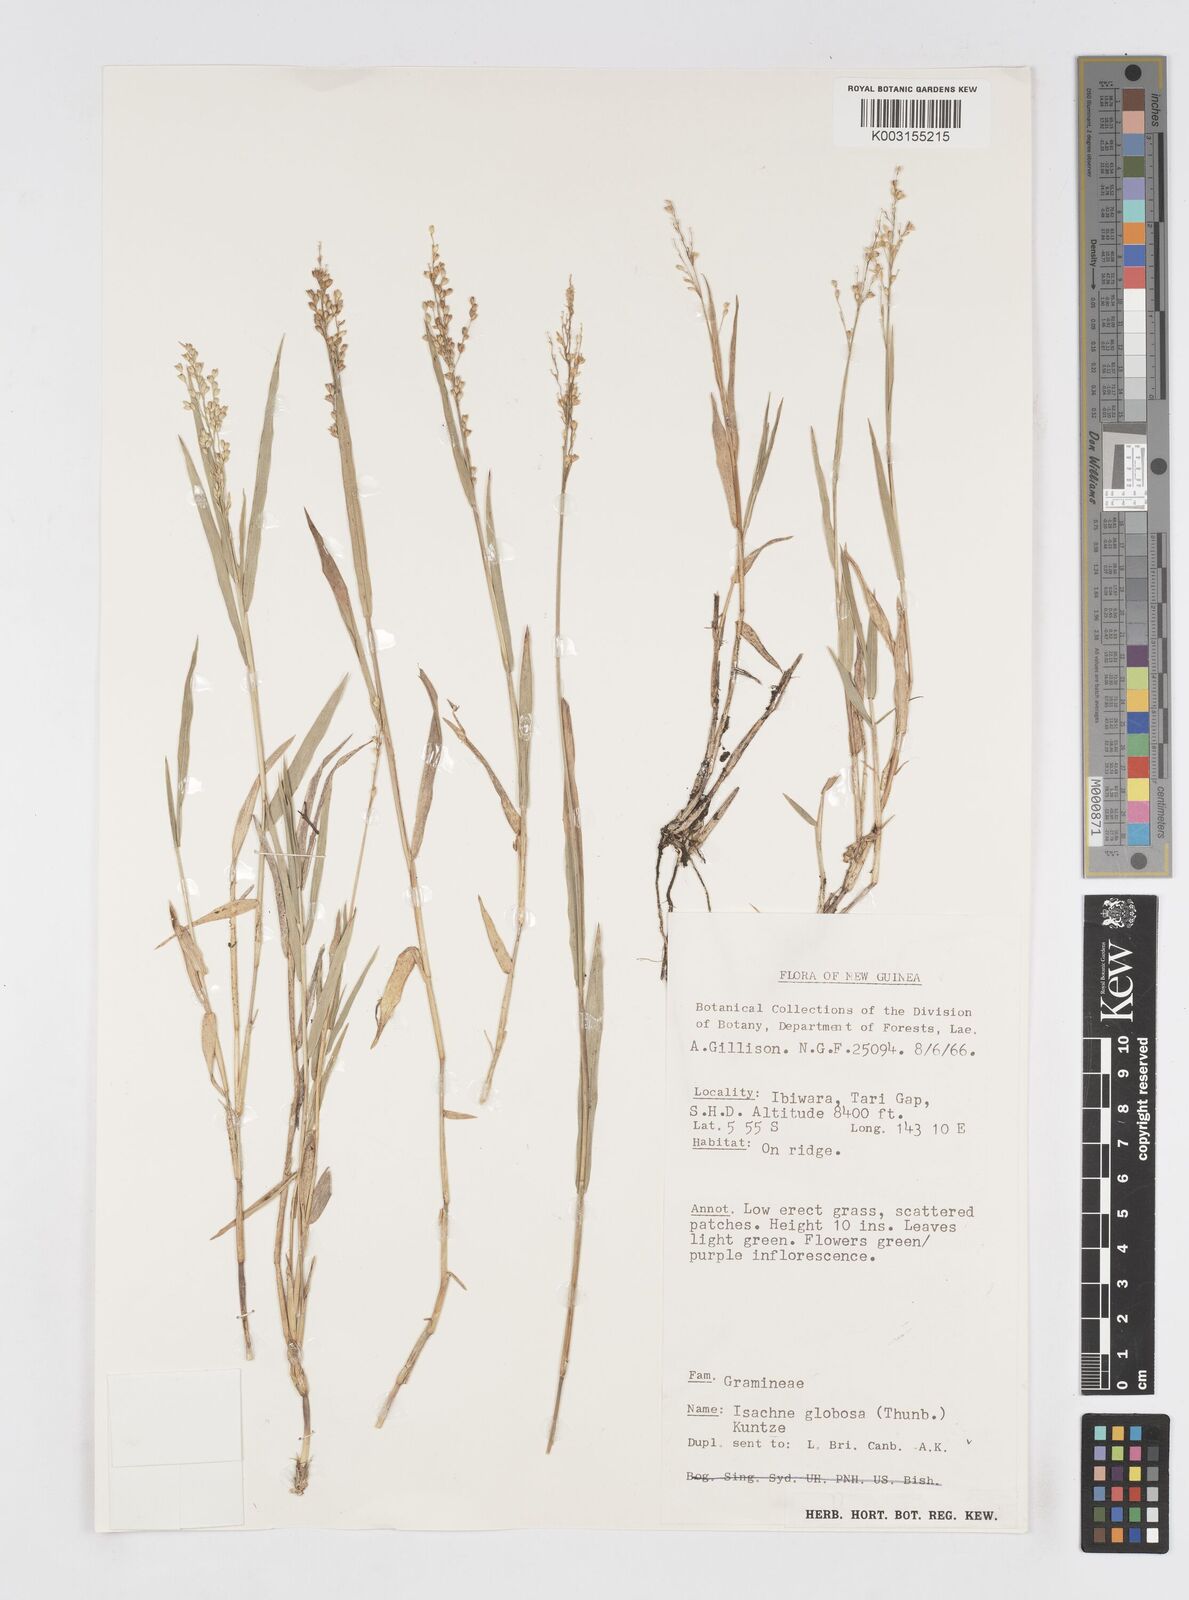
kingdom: Plantae
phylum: Tracheophyta
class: Liliopsida
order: Poales
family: Poaceae
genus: Isachne
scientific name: Isachne globosa
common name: Swamp millet
